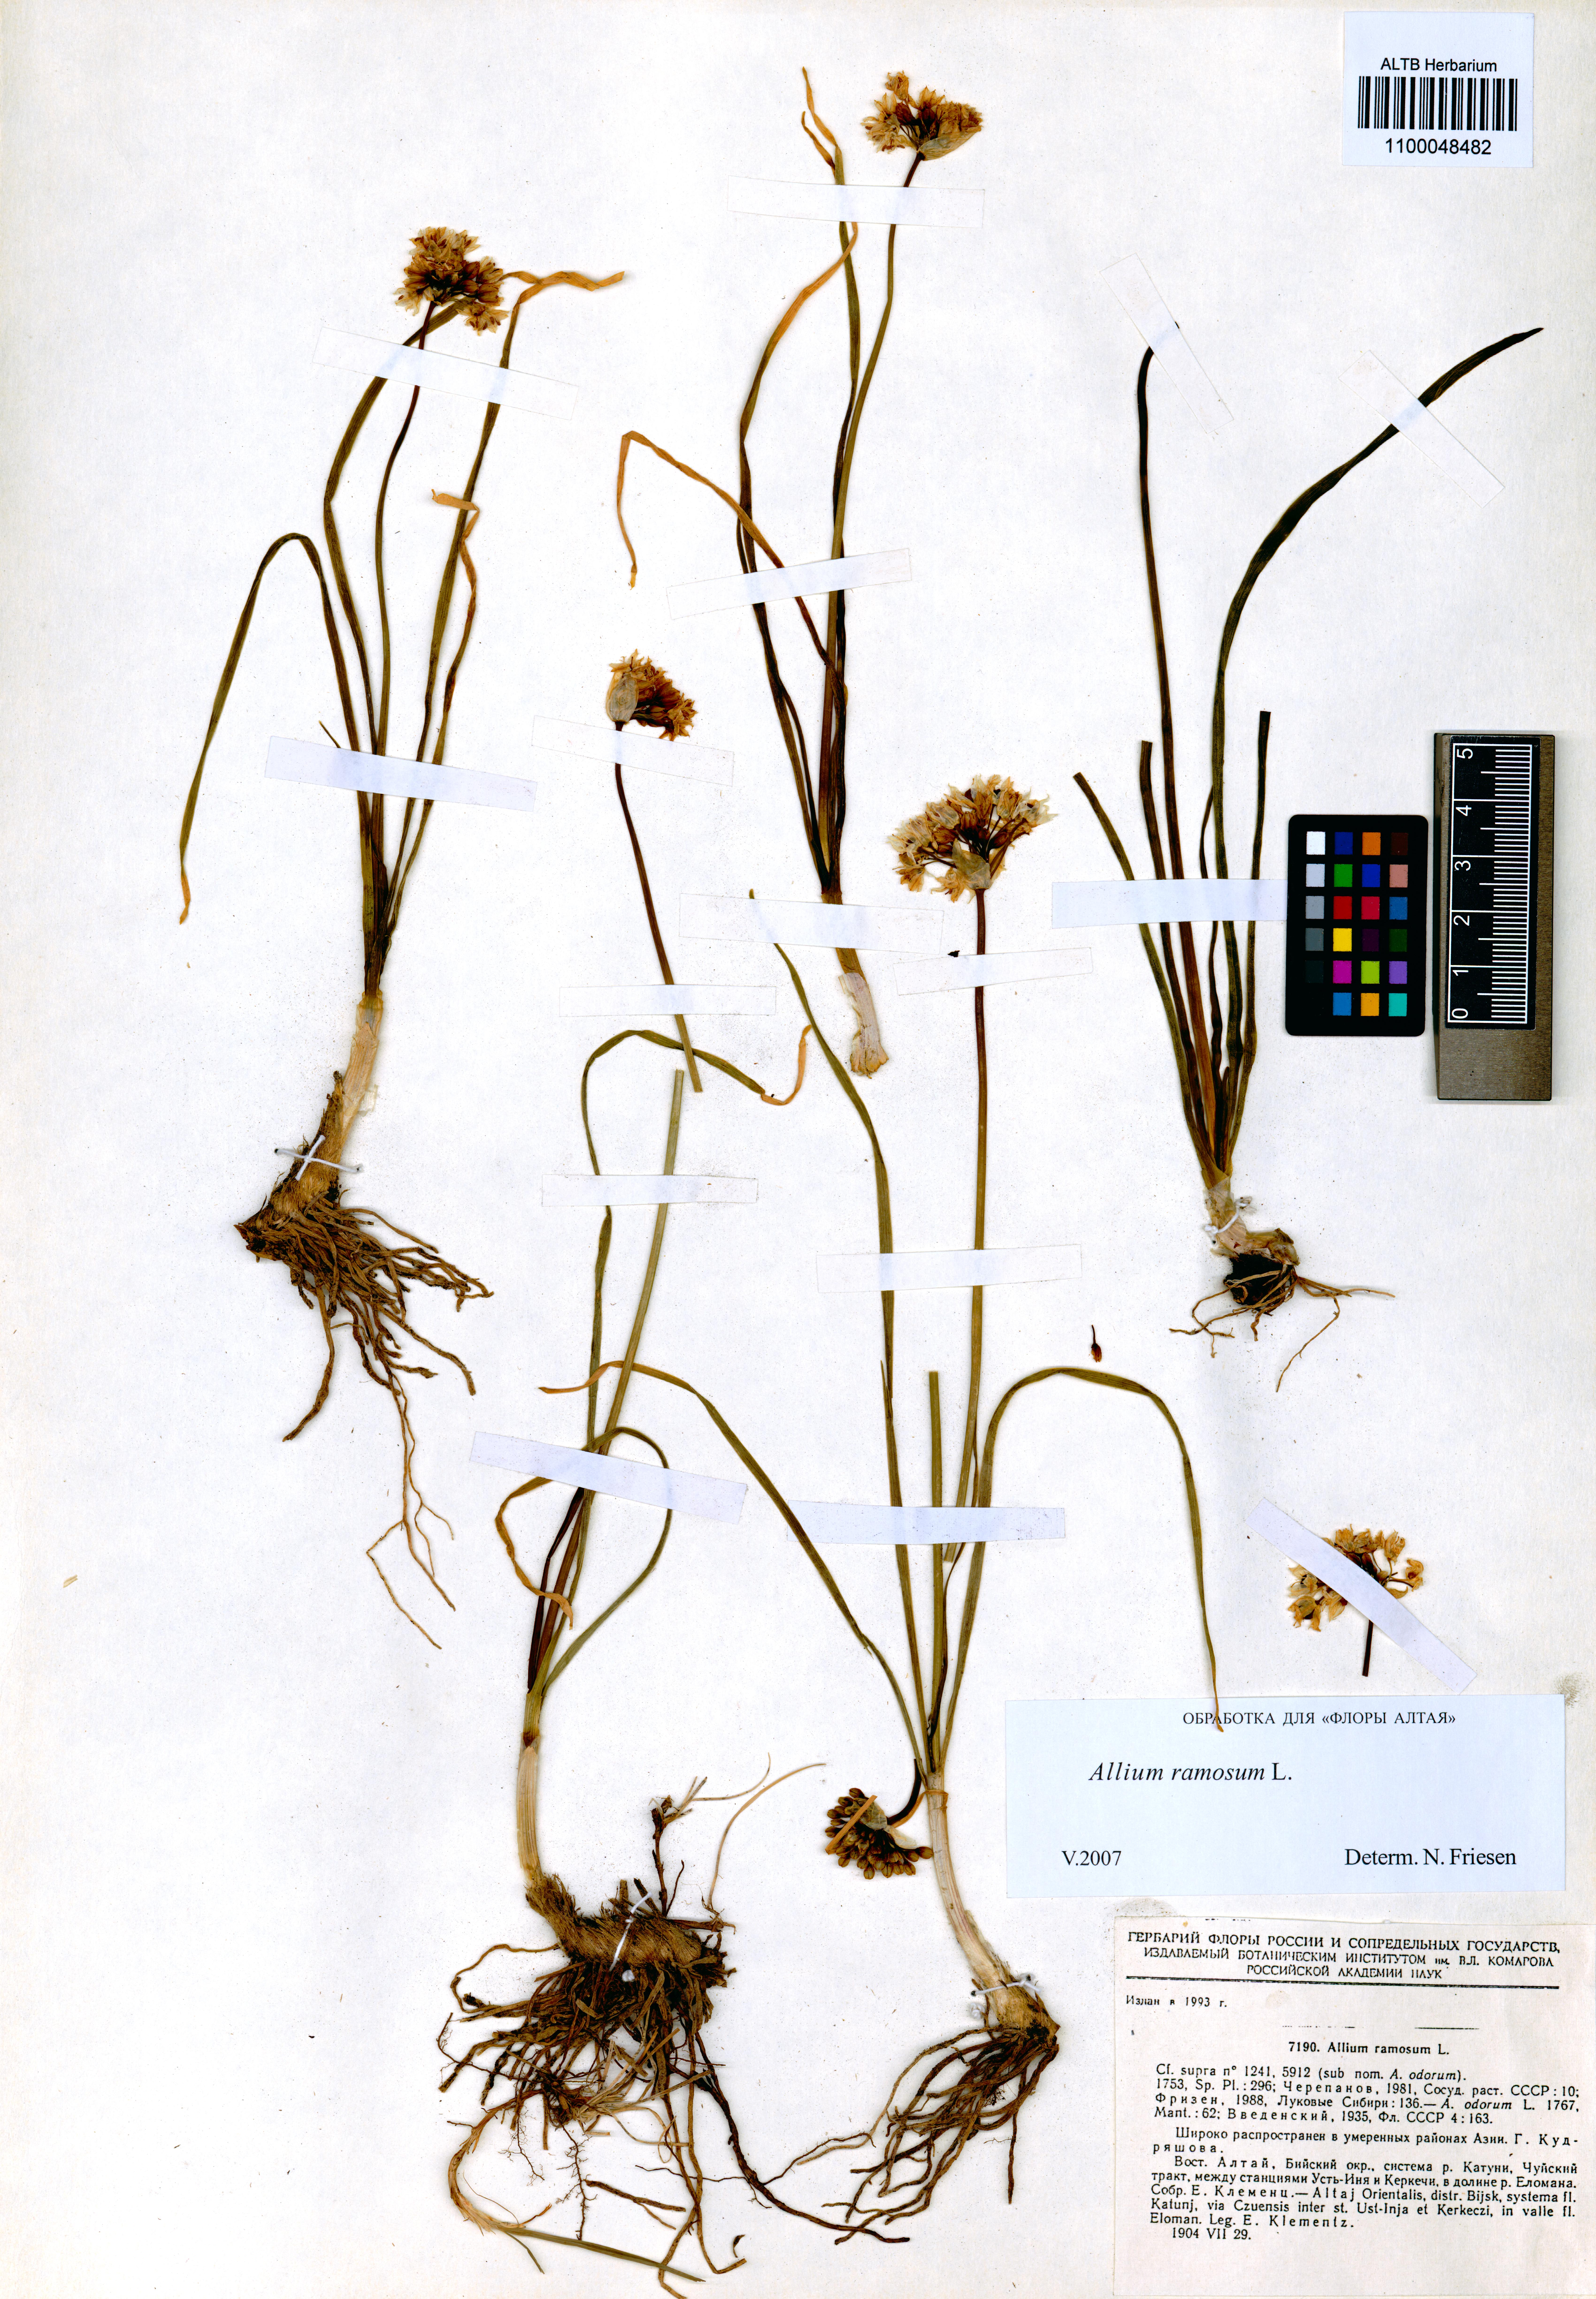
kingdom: Plantae
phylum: Tracheophyta
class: Liliopsida
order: Asparagales
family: Amaryllidaceae
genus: Allium
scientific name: Allium ramosum
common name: Fragrant garlic
